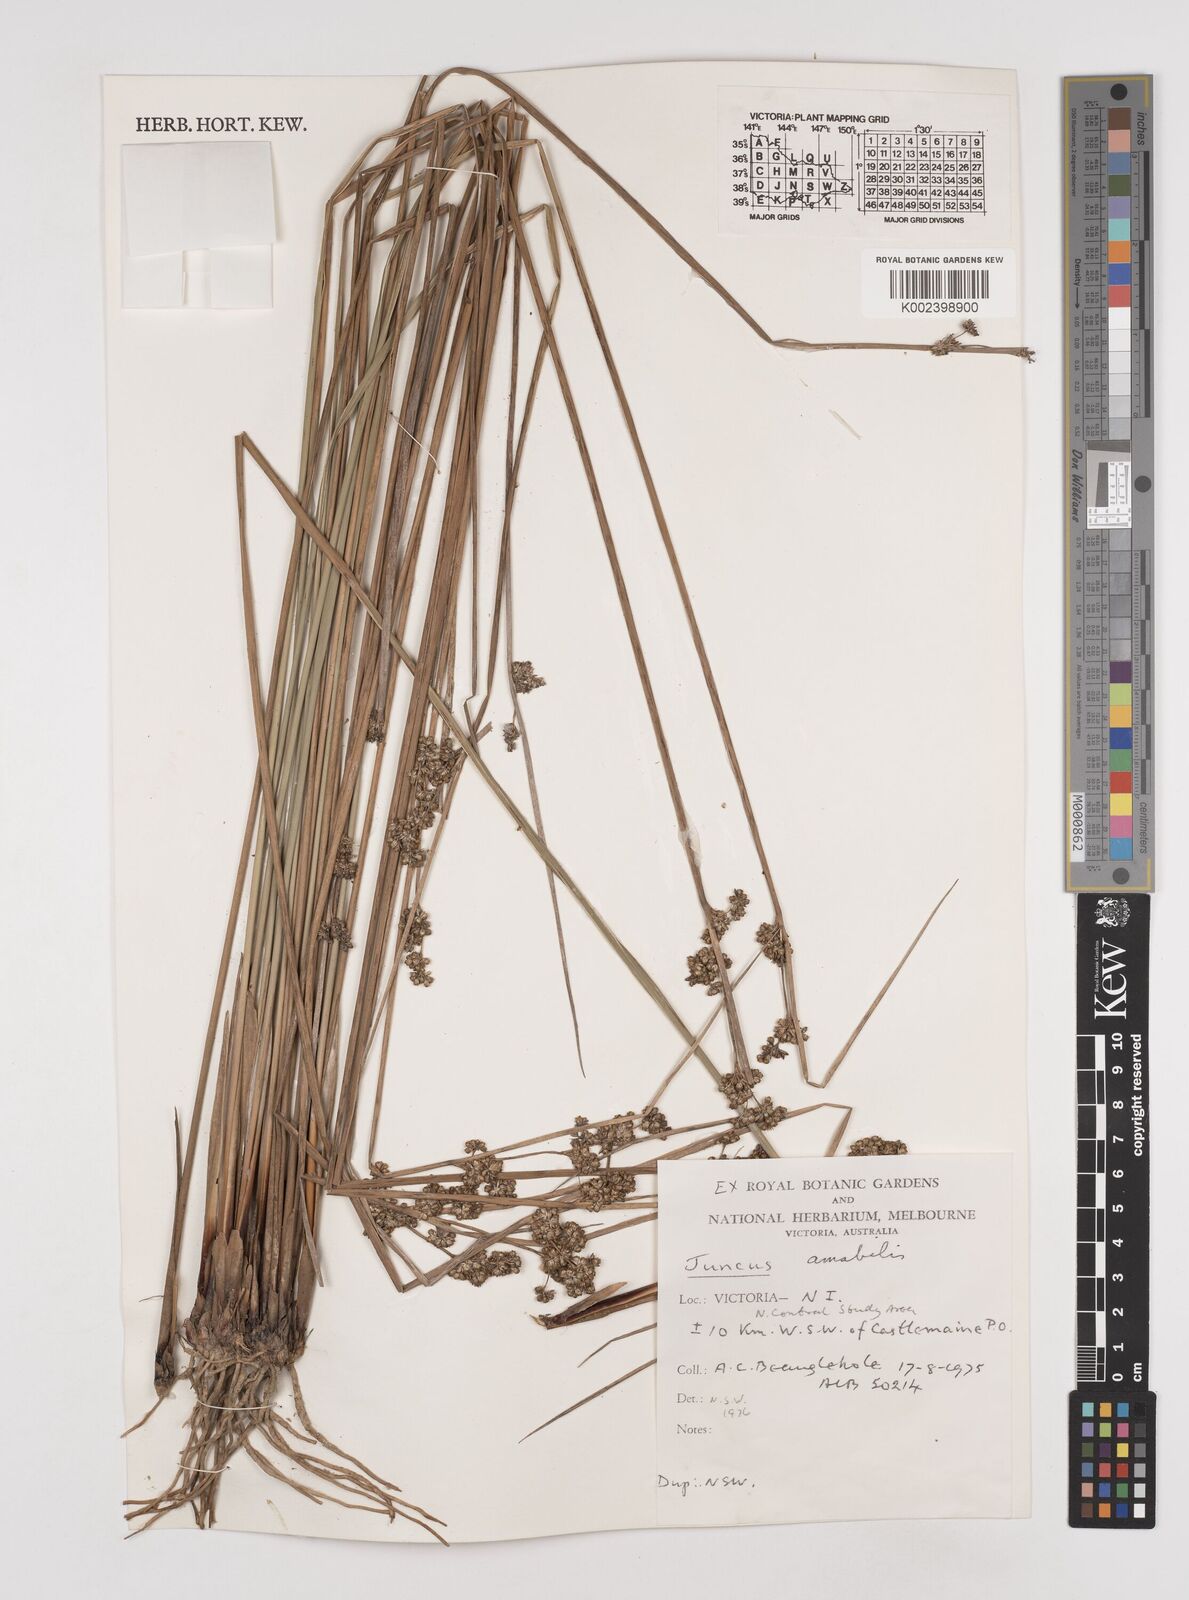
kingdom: Plantae
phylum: Tracheophyta
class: Liliopsida
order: Poales
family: Juncaceae
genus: Juncus
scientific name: Juncus amabilis
